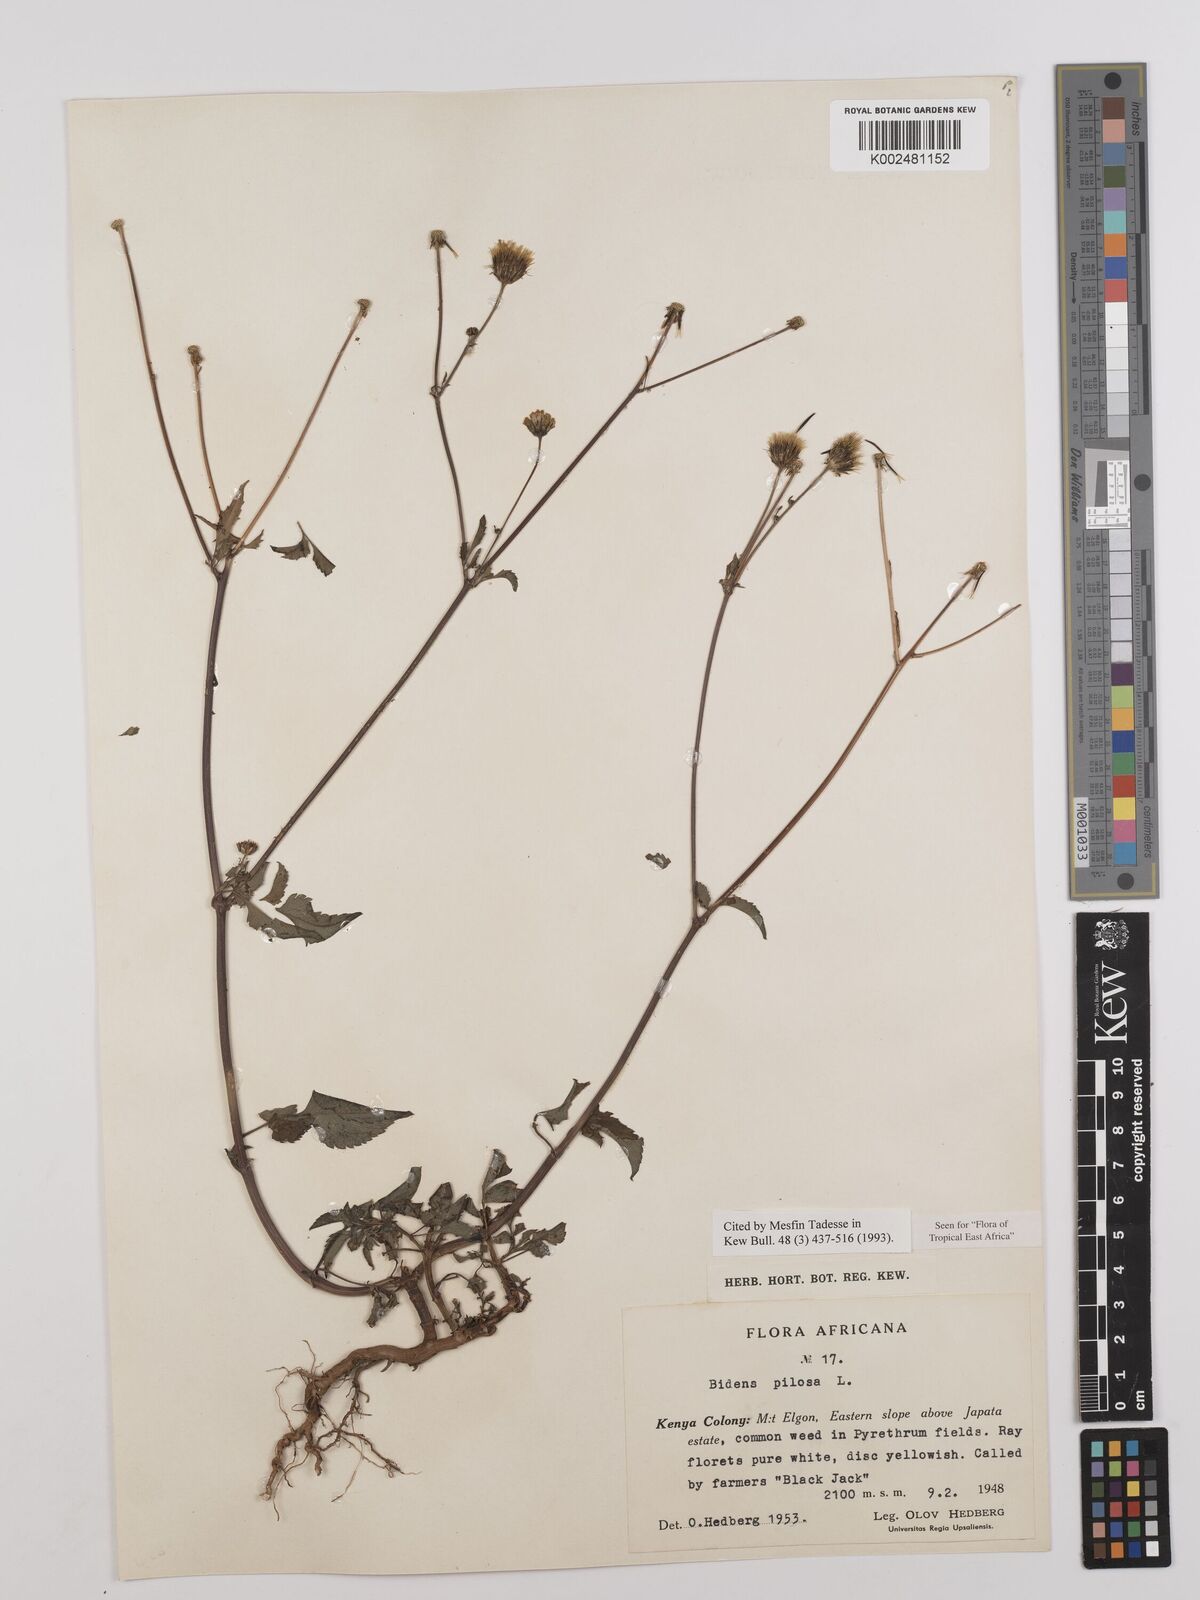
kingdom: Plantae
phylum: Tracheophyta
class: Magnoliopsida
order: Asterales
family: Asteraceae
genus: Bidens
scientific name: Bidens pilosa
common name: Black-jack
